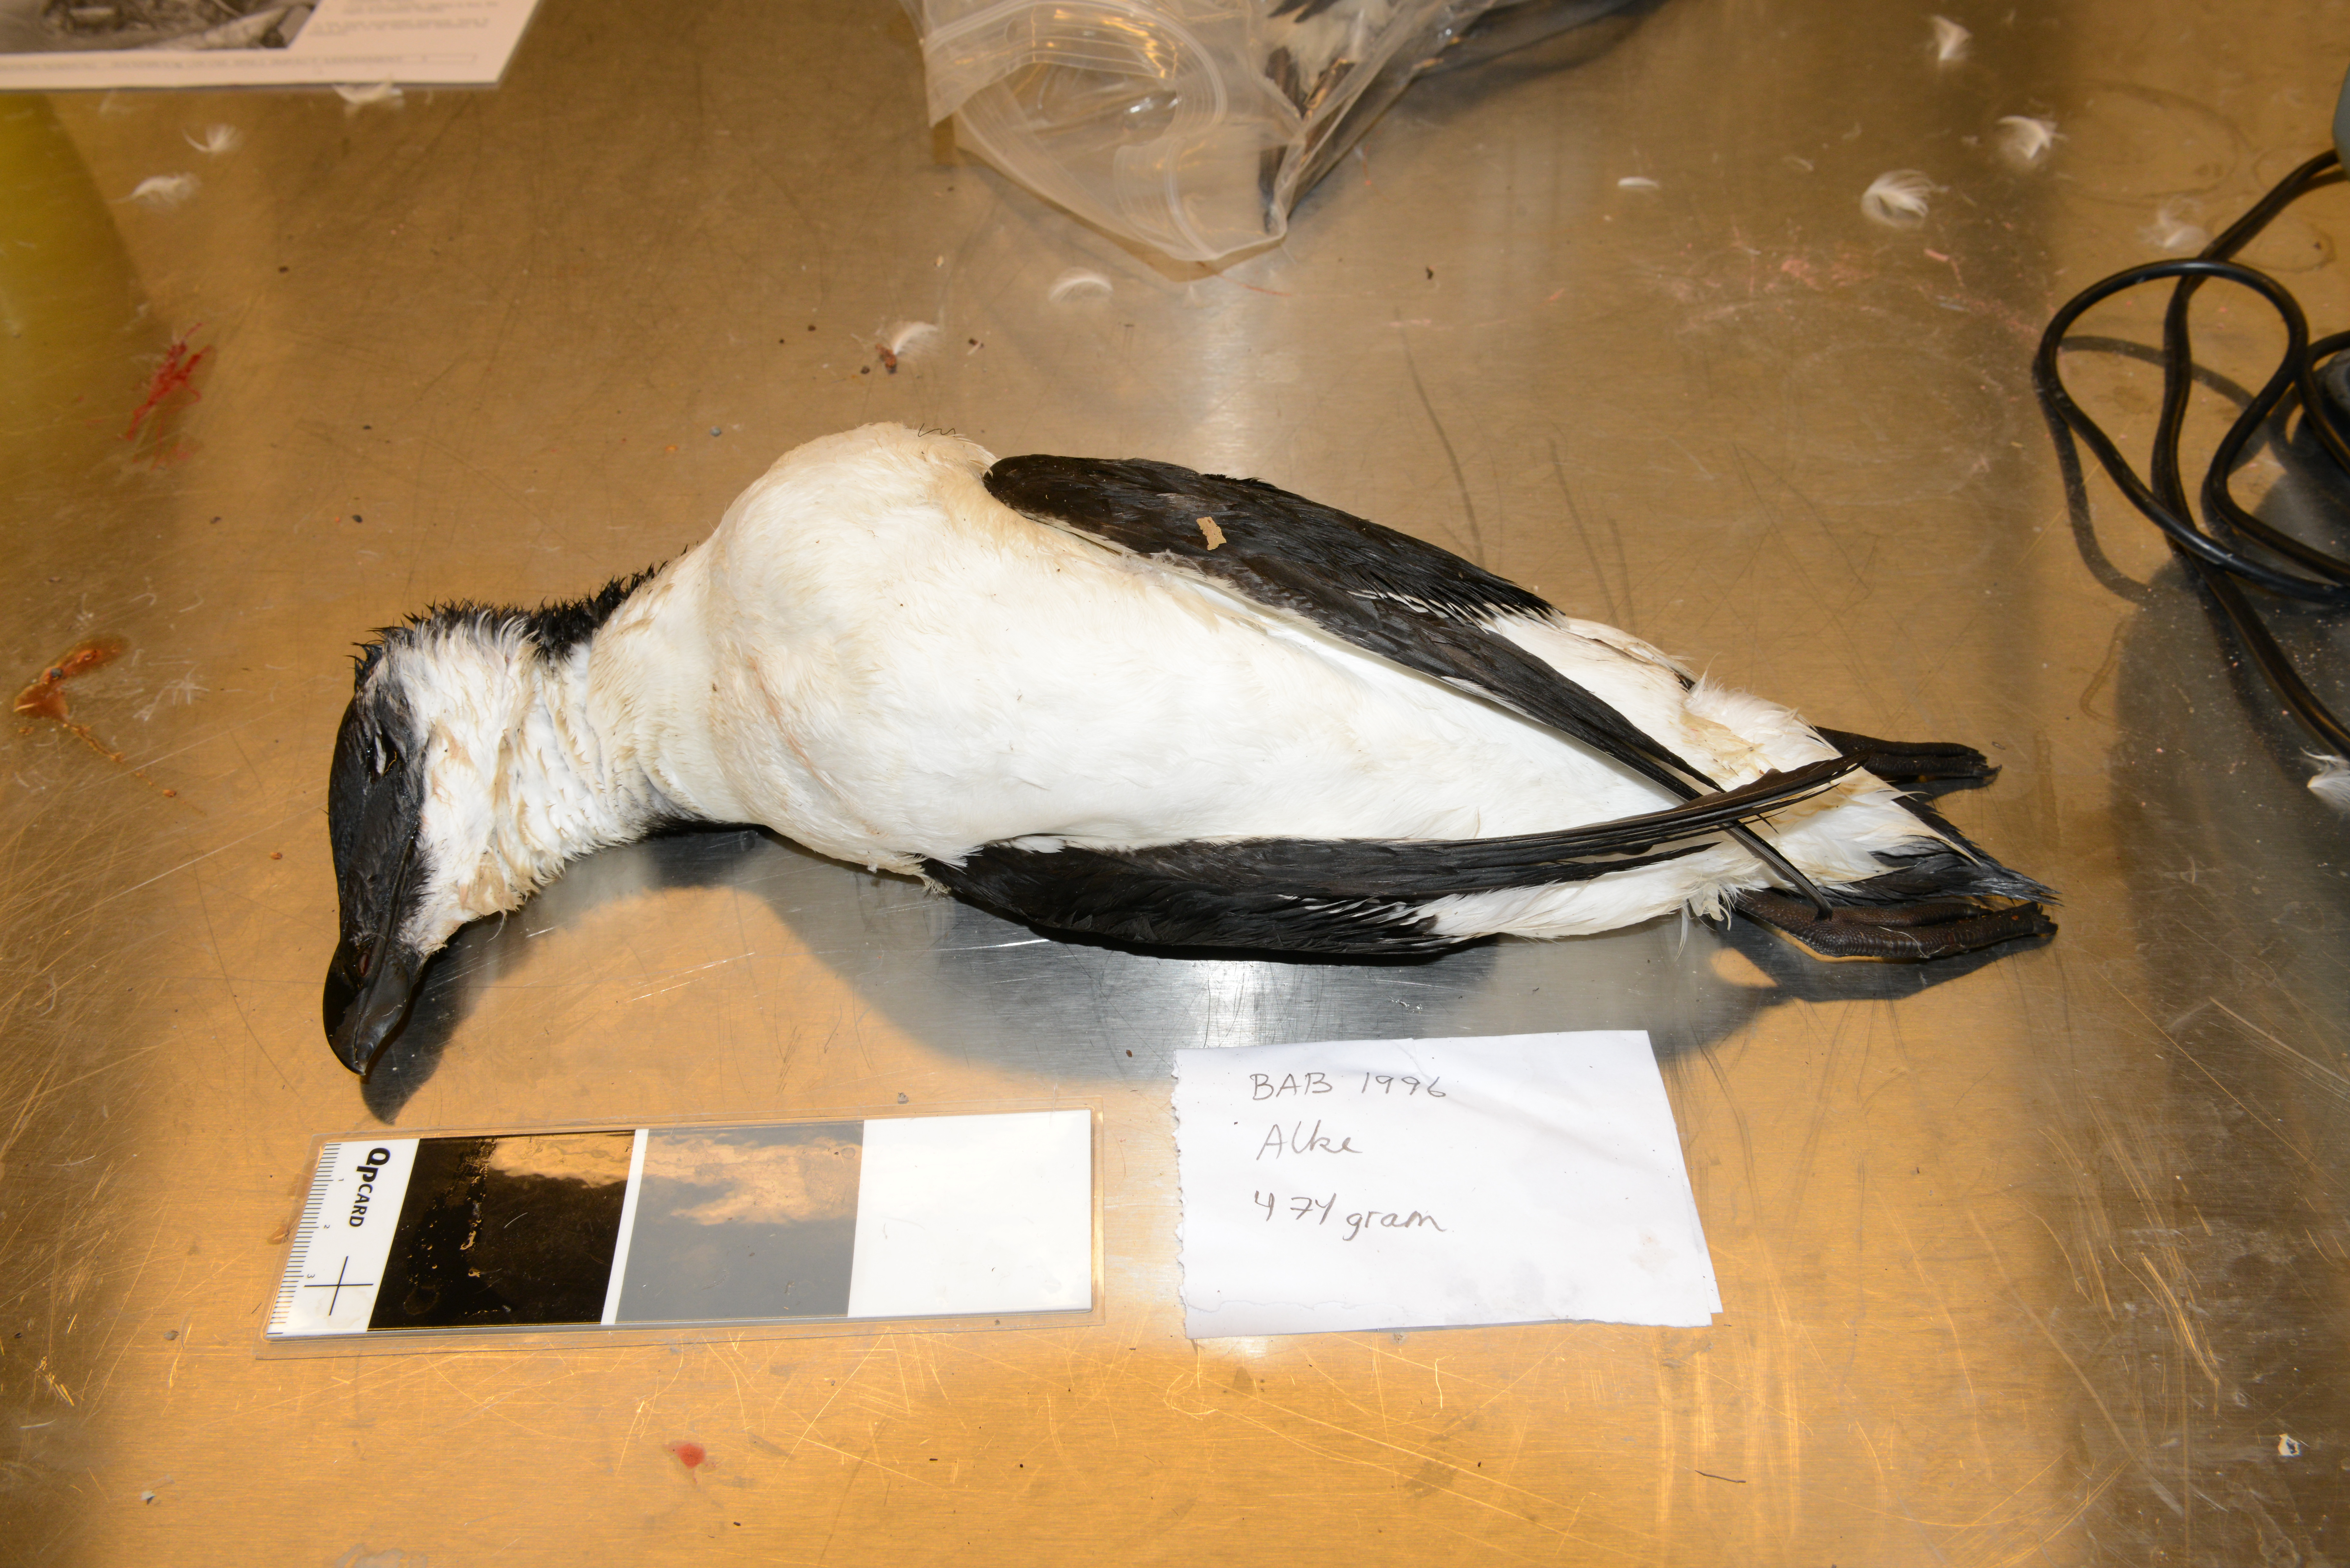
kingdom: Animalia
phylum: Chordata
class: Aves
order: Charadriiformes
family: Alcidae
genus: Alca
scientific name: Alca torda
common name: Razorbill
